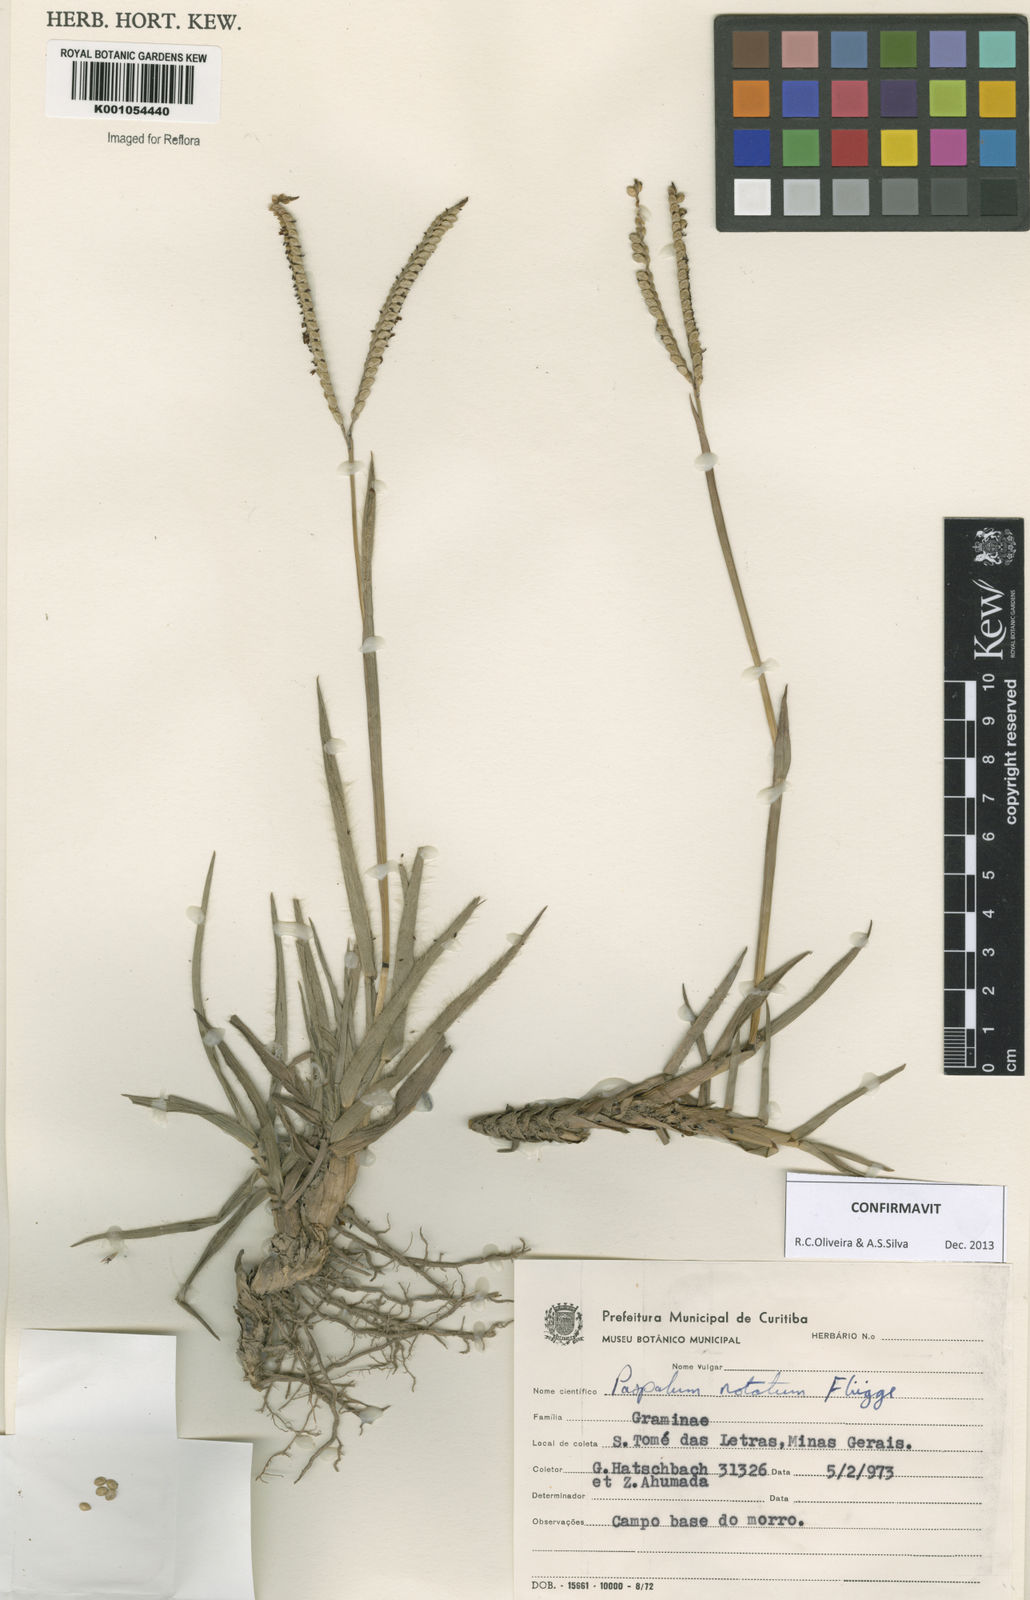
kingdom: Plantae
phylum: Tracheophyta
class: Liliopsida
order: Poales
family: Poaceae
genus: Paspalum
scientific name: Paspalum
